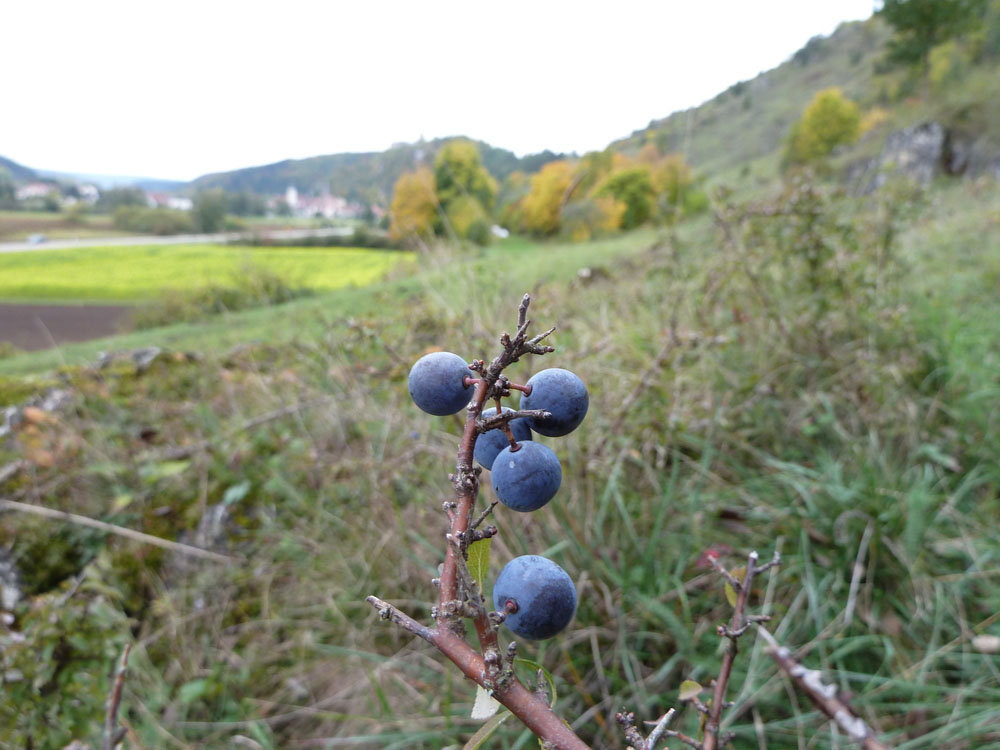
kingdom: Plantae
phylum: Tracheophyta
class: Magnoliopsida
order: Rosales
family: Rosaceae
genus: Prunus
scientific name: Prunus spinosa
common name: Blackthorn
